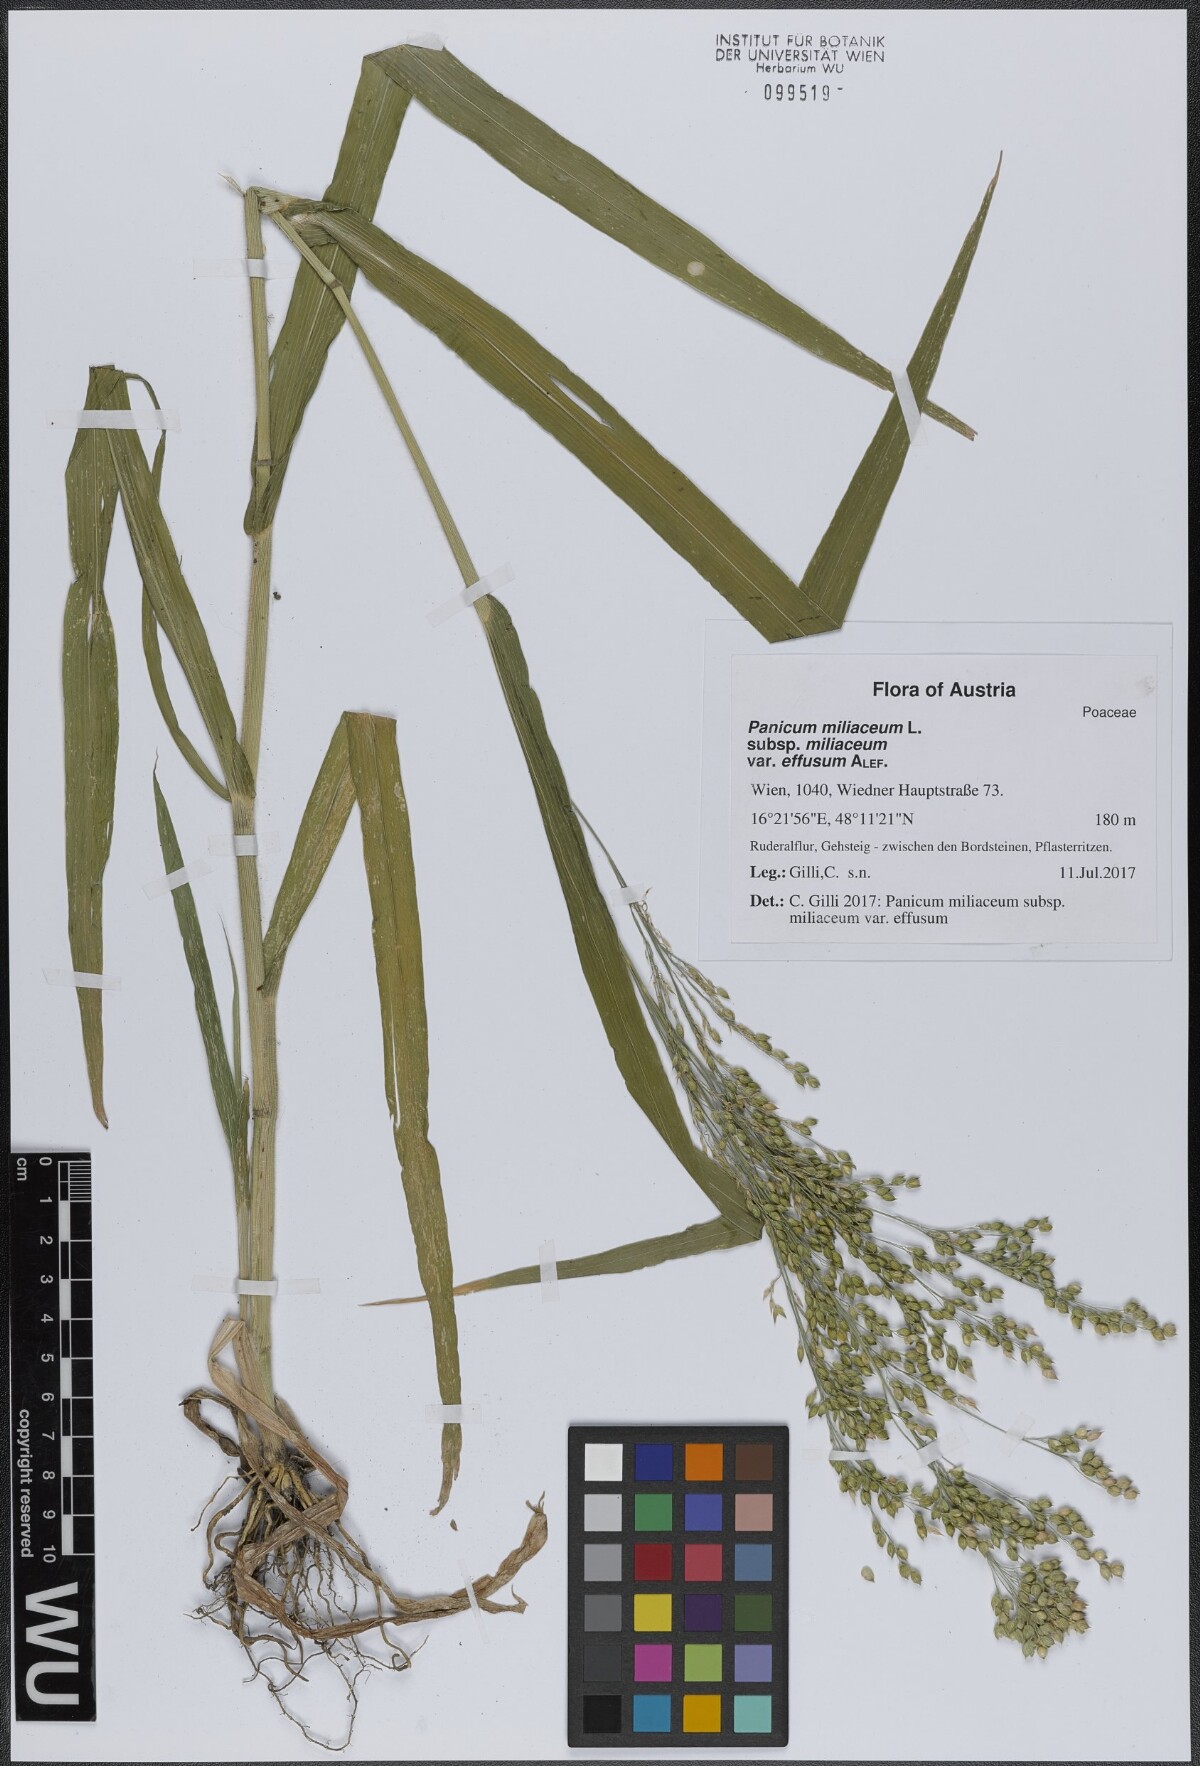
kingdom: Plantae
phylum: Tracheophyta
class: Liliopsida
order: Poales
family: Poaceae
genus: Panicum
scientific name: Panicum miliaceum
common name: Common millet
